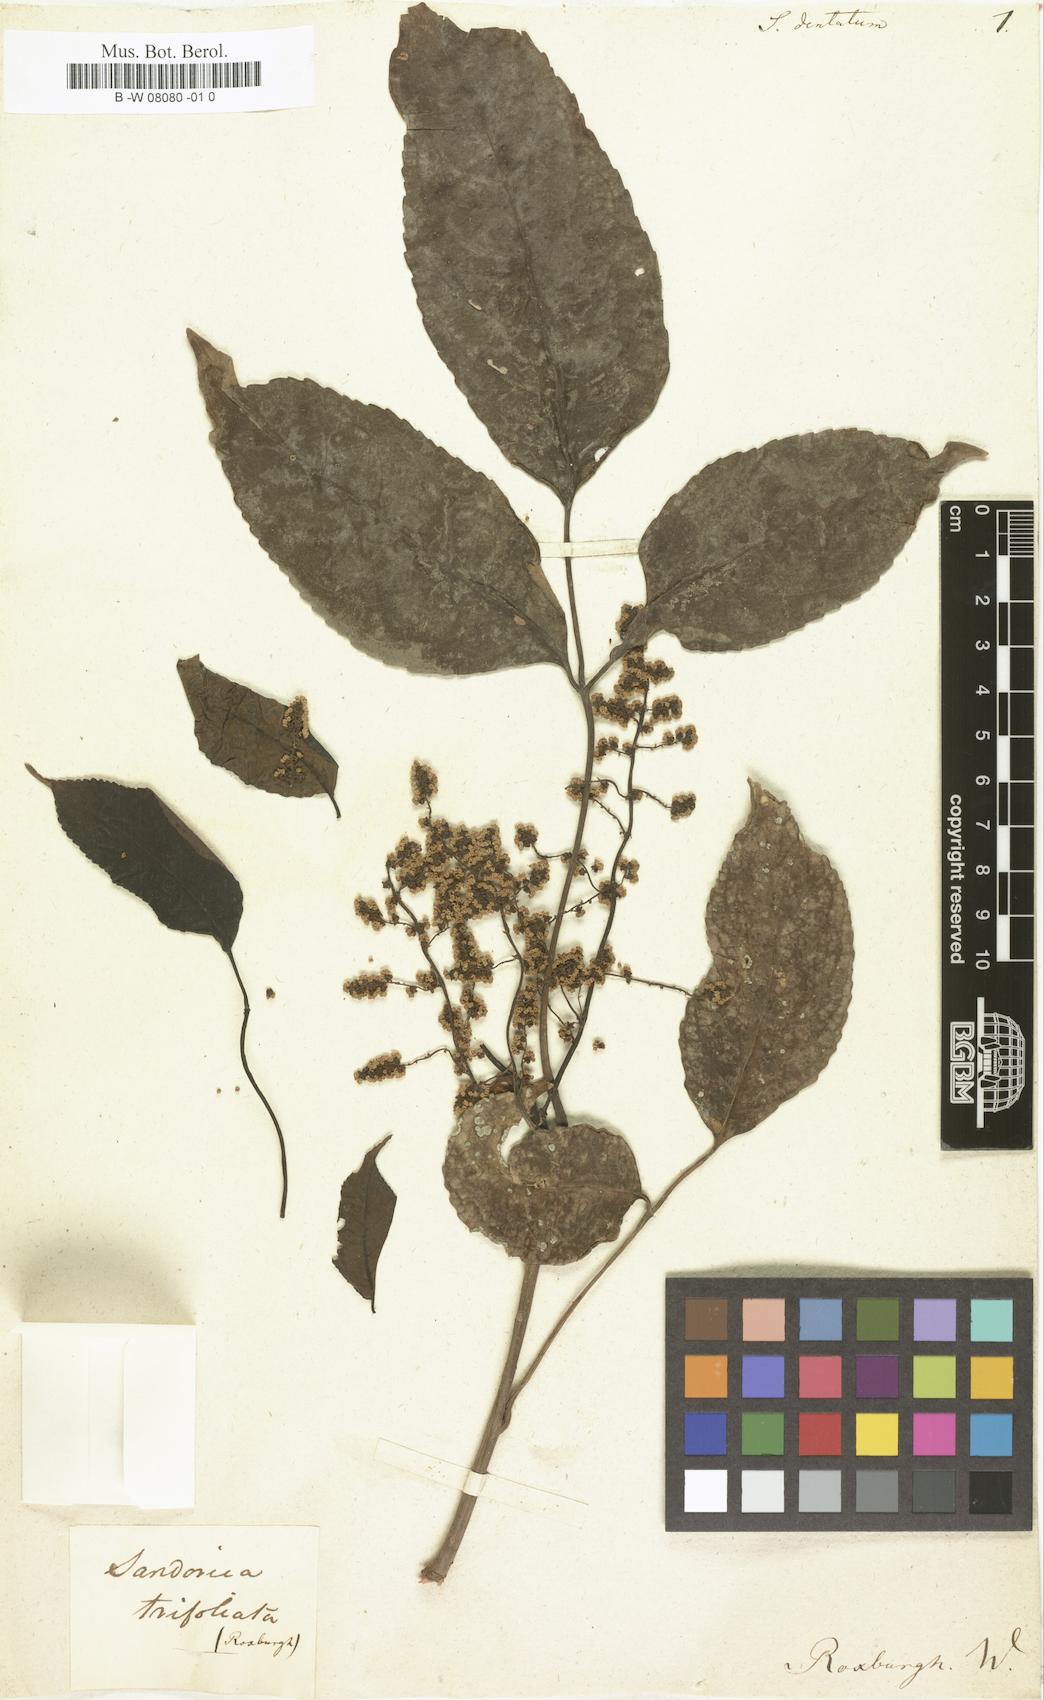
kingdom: Plantae
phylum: Tracheophyta
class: Magnoliopsida
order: Sapindales
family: Meliaceae
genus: Sandoricum
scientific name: Sandoricum
